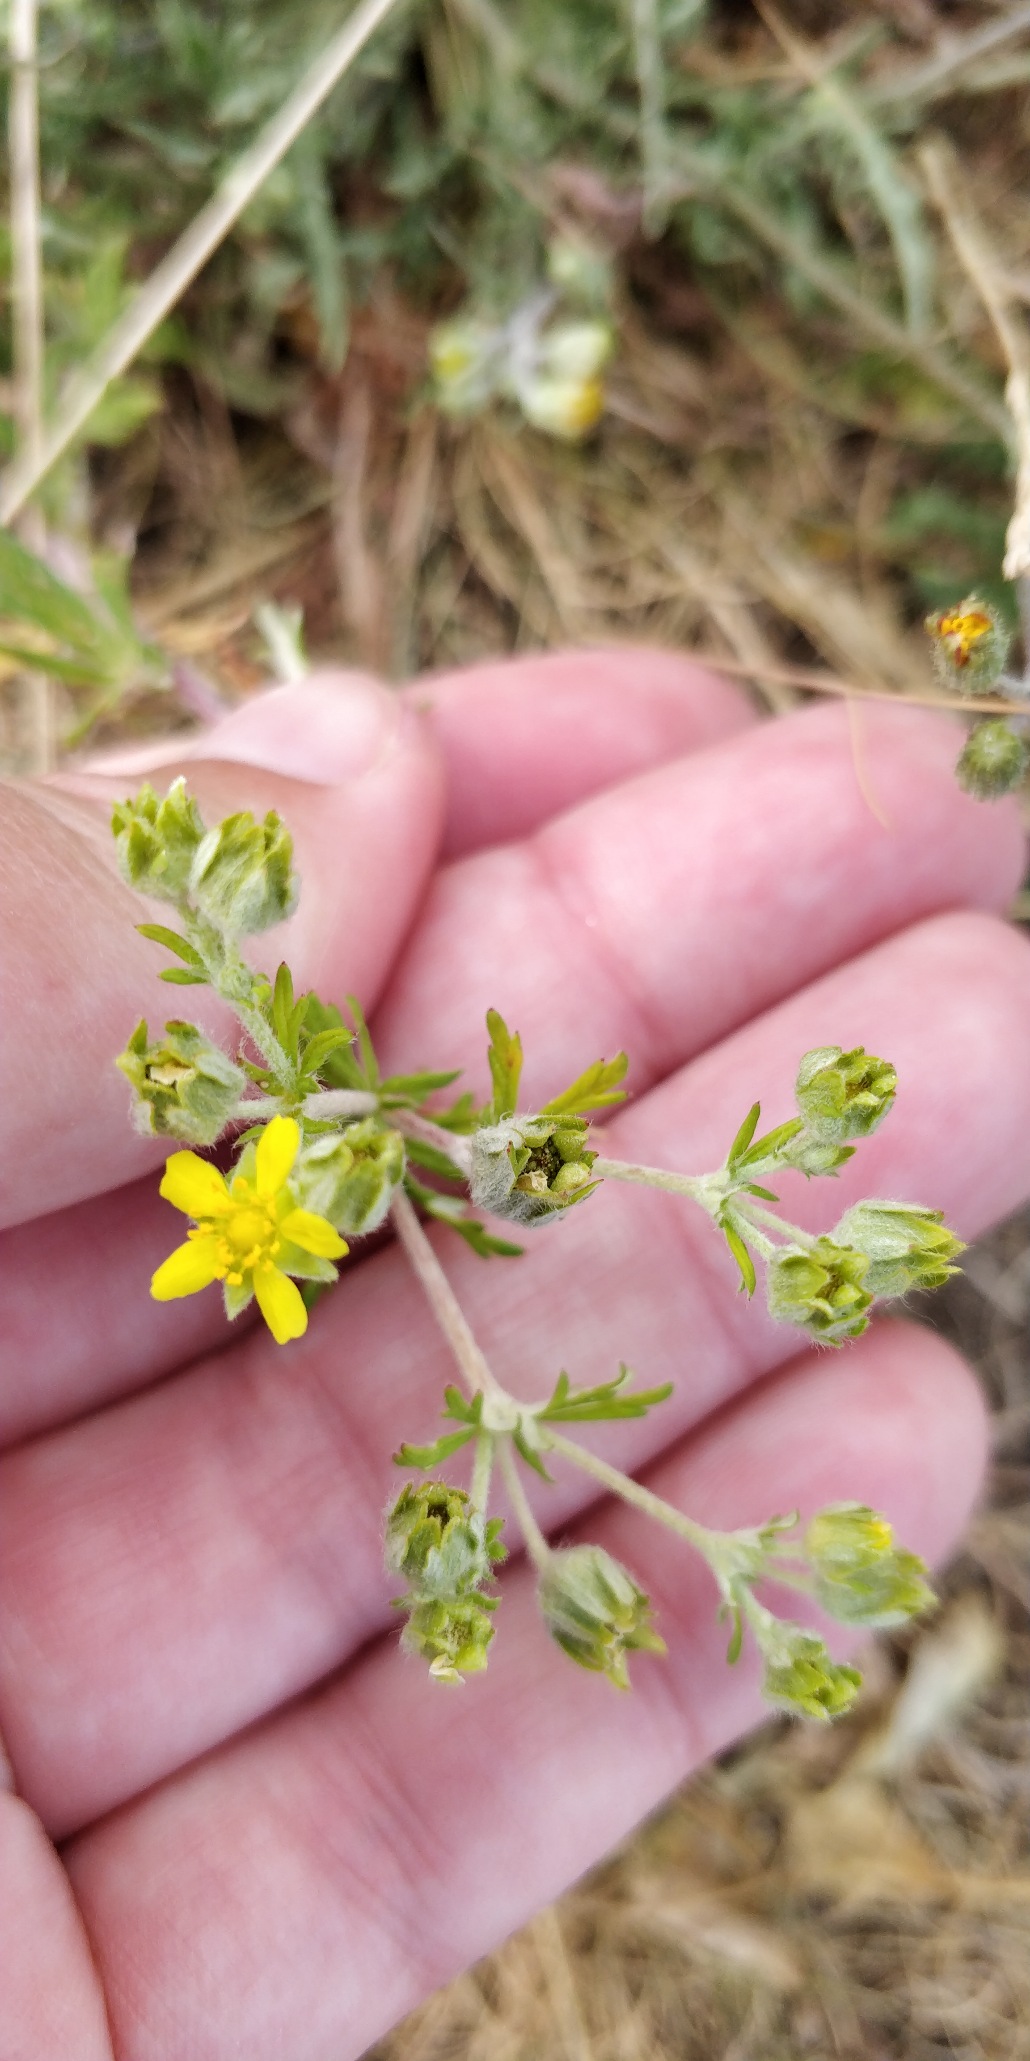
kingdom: Plantae
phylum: Tracheophyta
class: Magnoliopsida
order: Rosales
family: Rosaceae
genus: Potentilla
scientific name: Potentilla argentea
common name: Sølv-potentil
